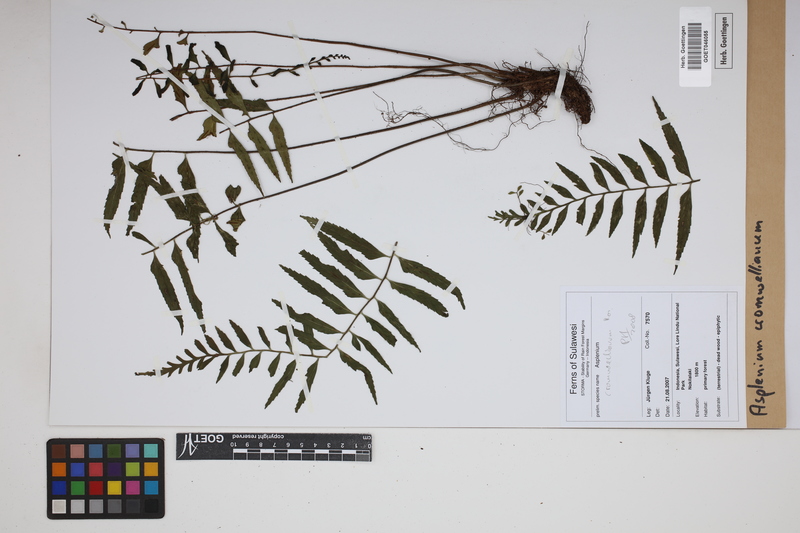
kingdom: Plantae
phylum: Tracheophyta
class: Polypodiopsida
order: Polypodiales
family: Aspleniaceae
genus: Asplenium
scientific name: Asplenium lobulatum
